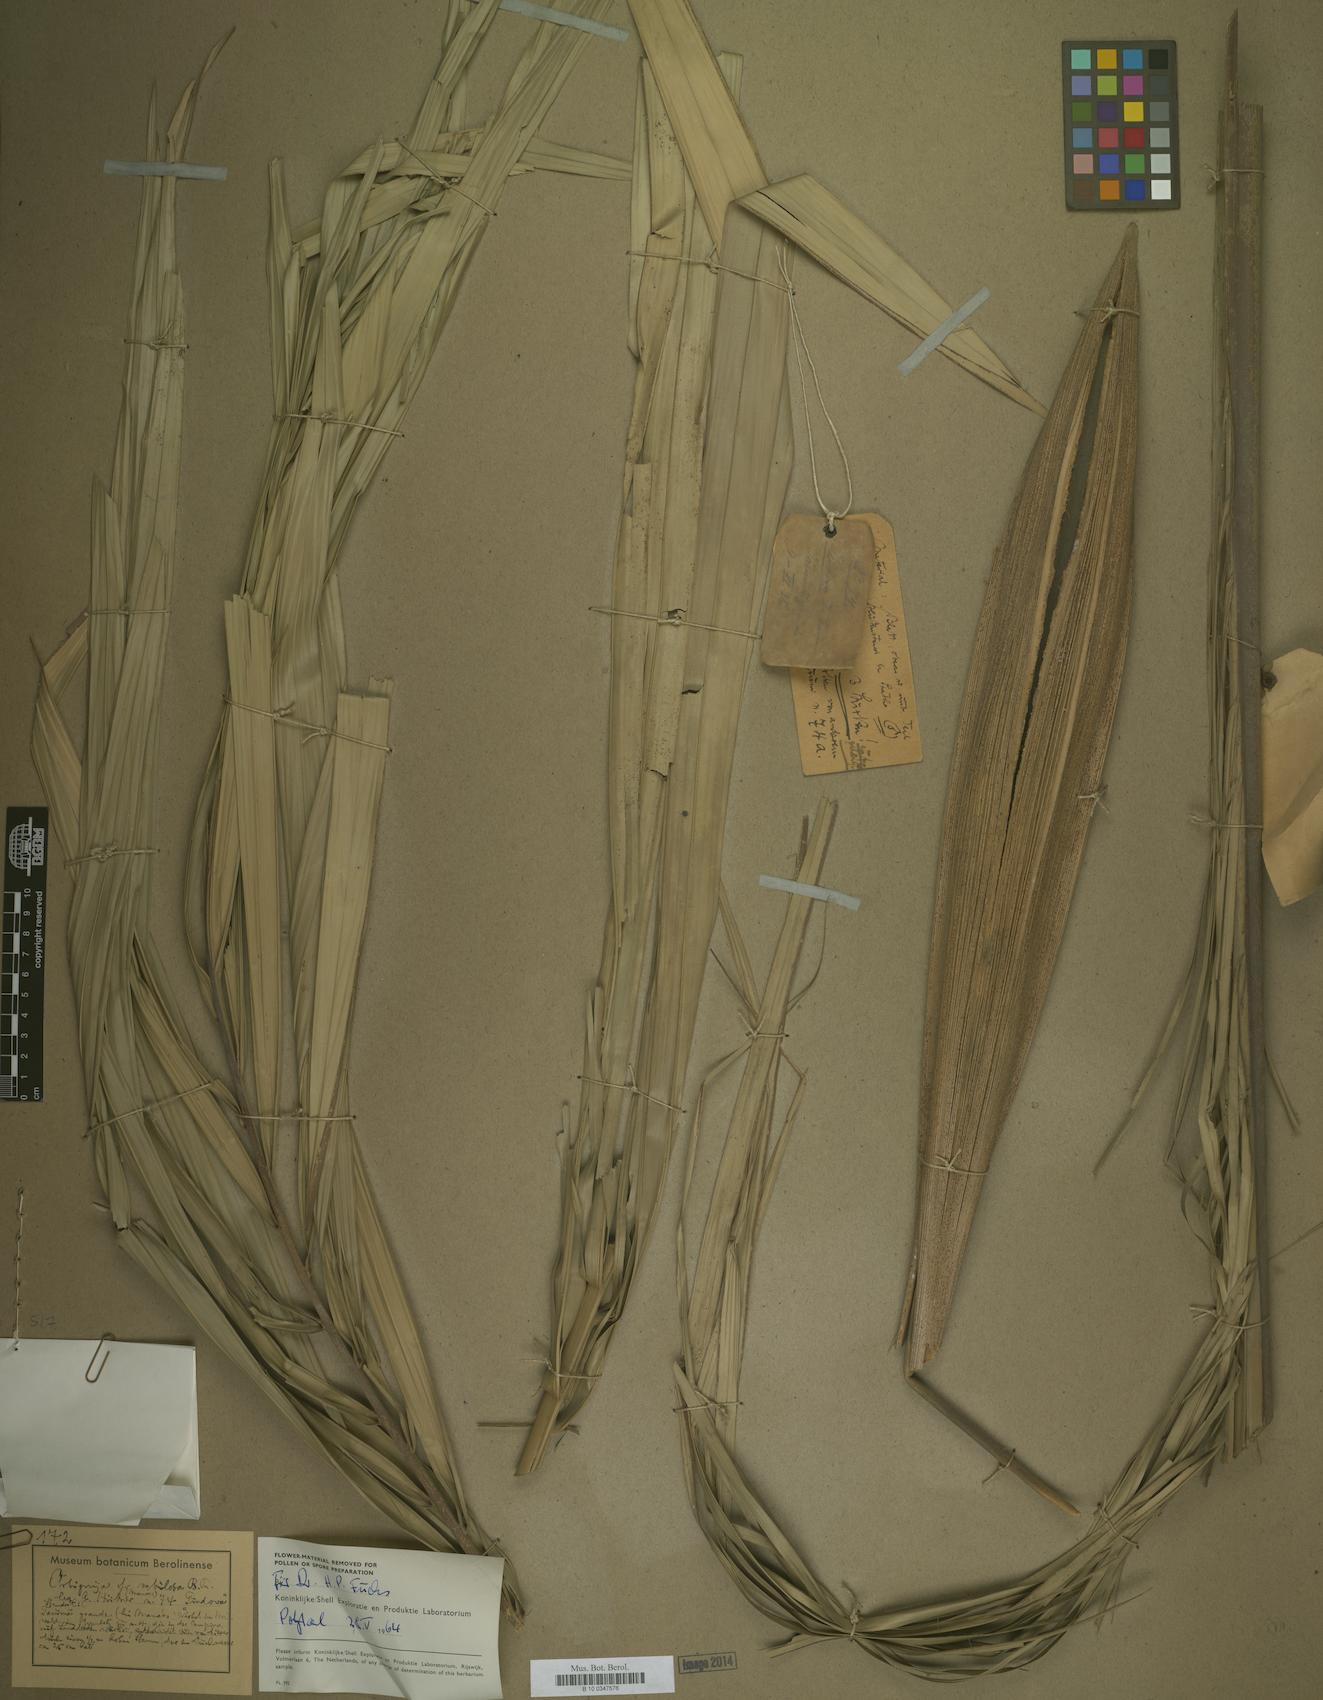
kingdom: Plantae
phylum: Tracheophyta
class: Liliopsida
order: Arecales
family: Arecaceae
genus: Attalea
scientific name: Attalea microcarpa
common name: Mountain maripa
